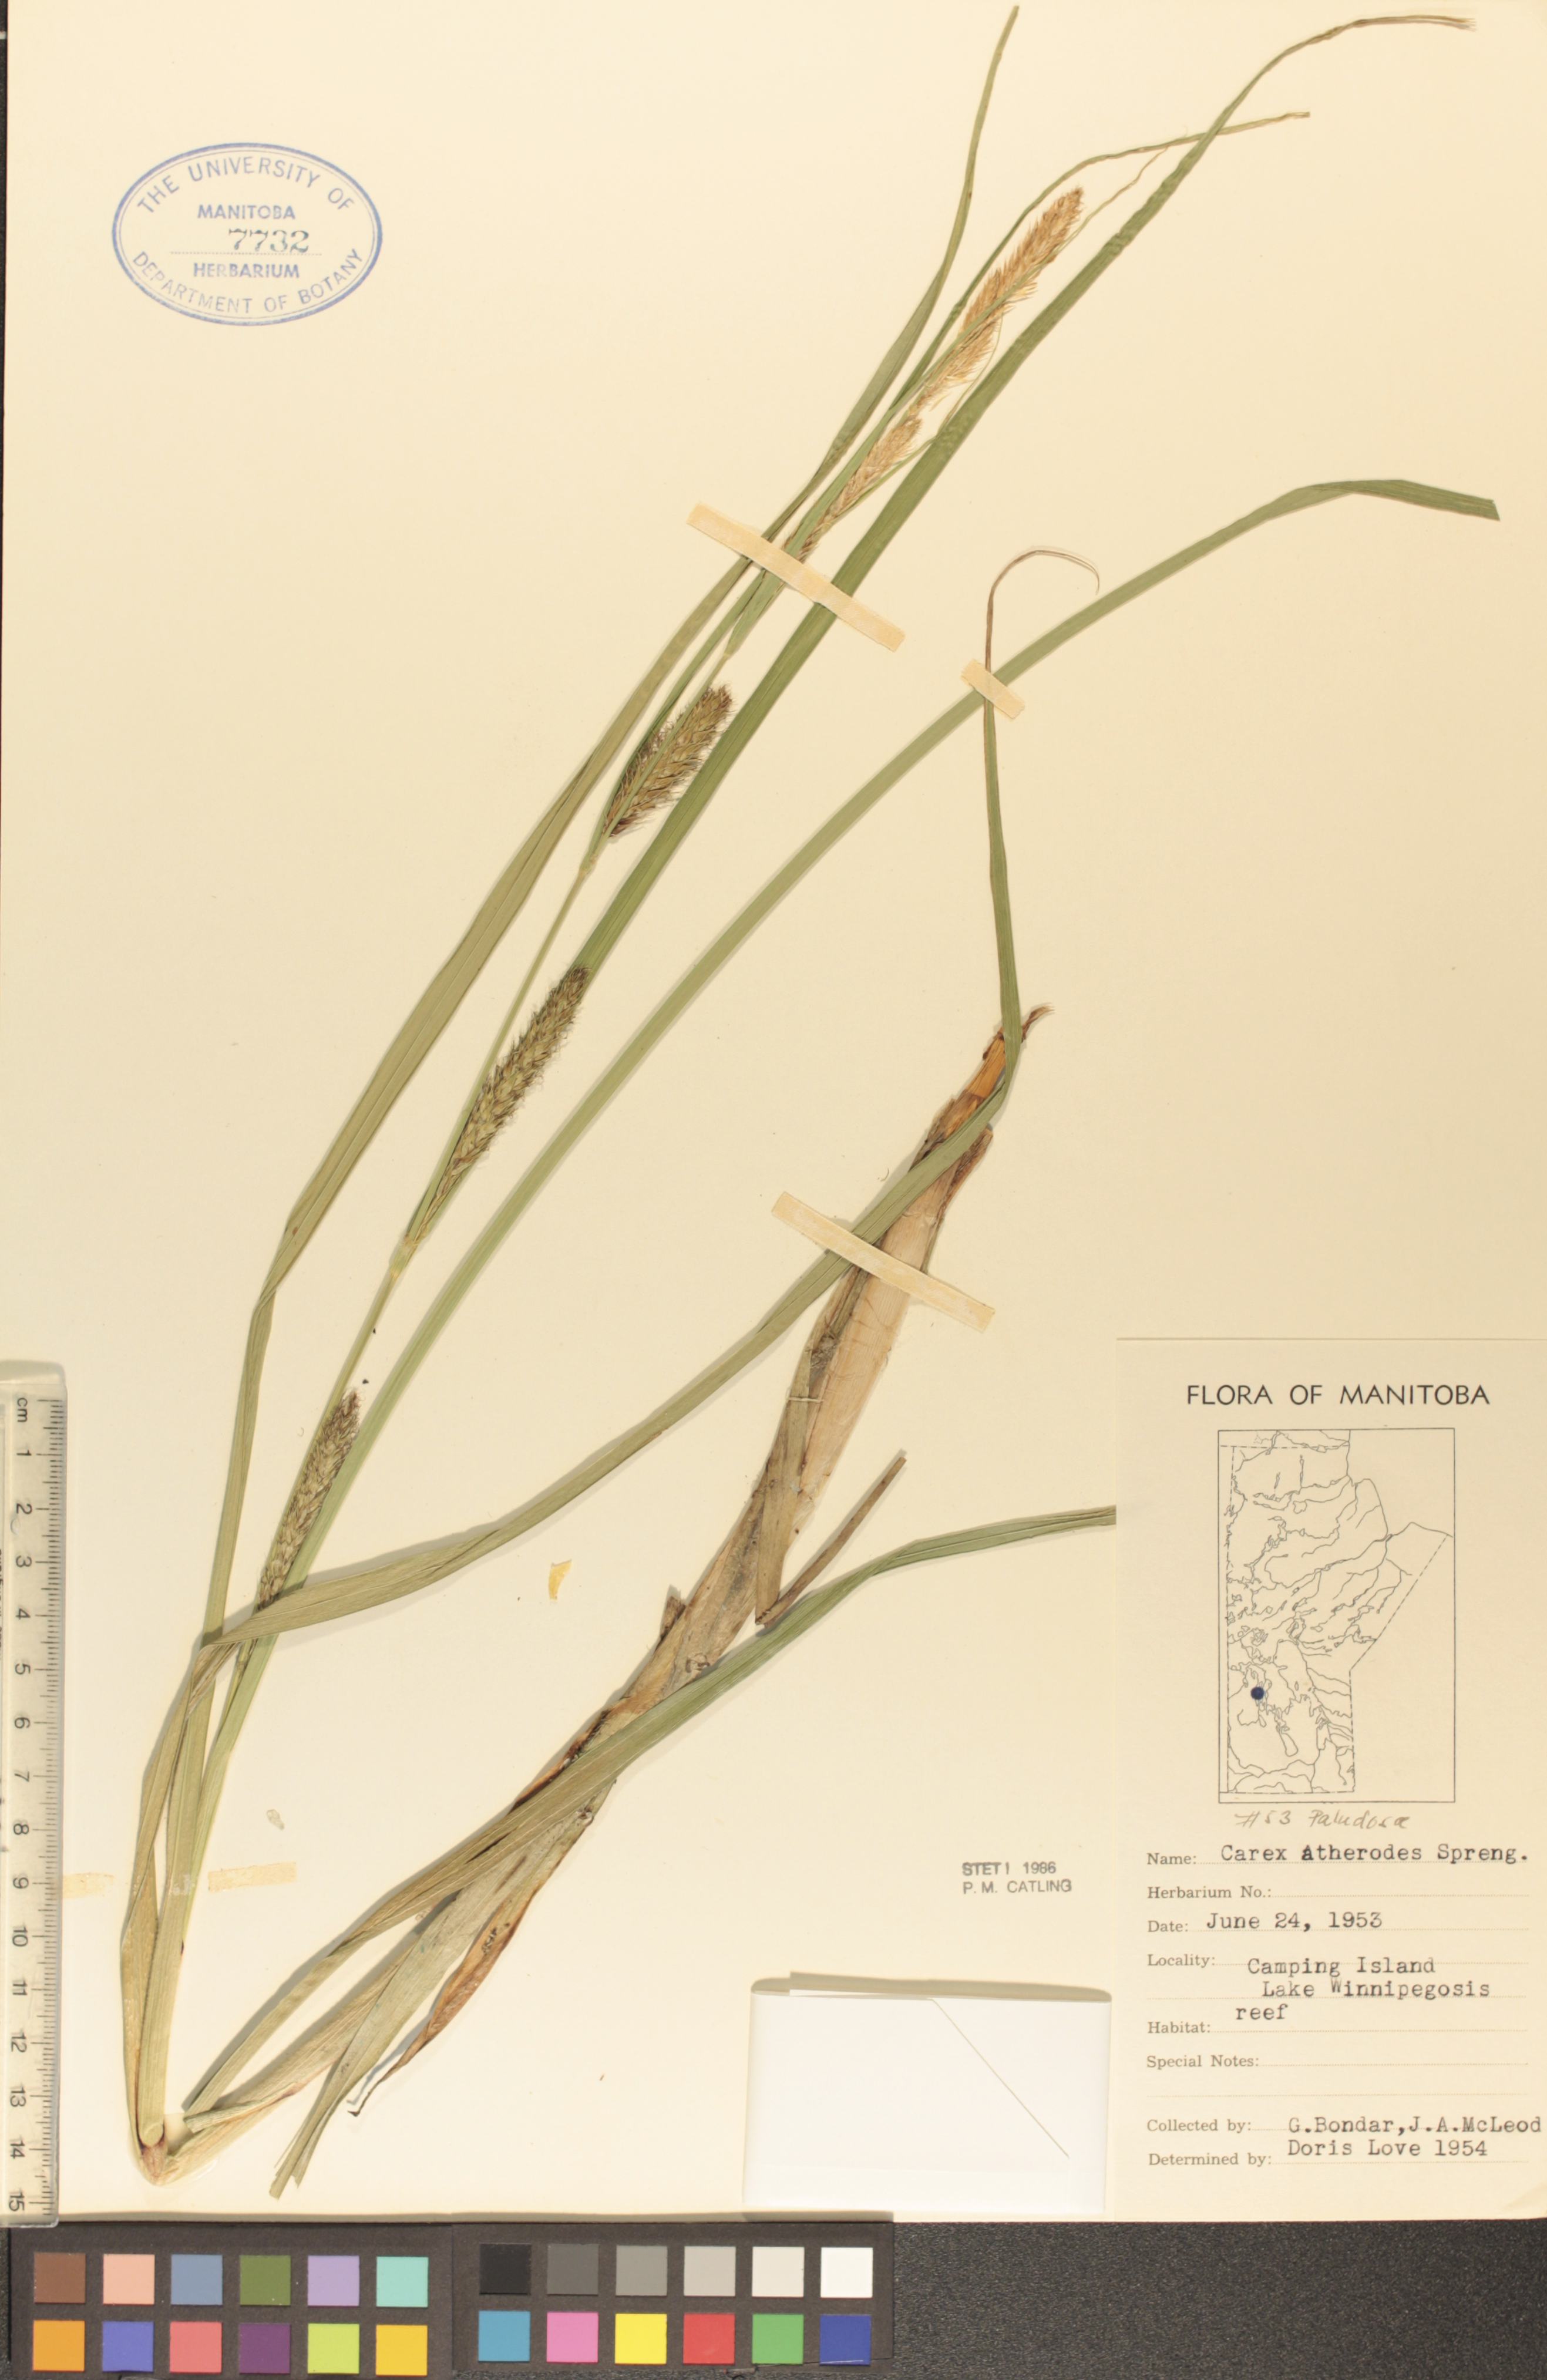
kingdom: Plantae
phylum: Tracheophyta
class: Liliopsida
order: Poales
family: Cyperaceae
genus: Carex
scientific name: Carex atherodes
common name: Wheat sedge
